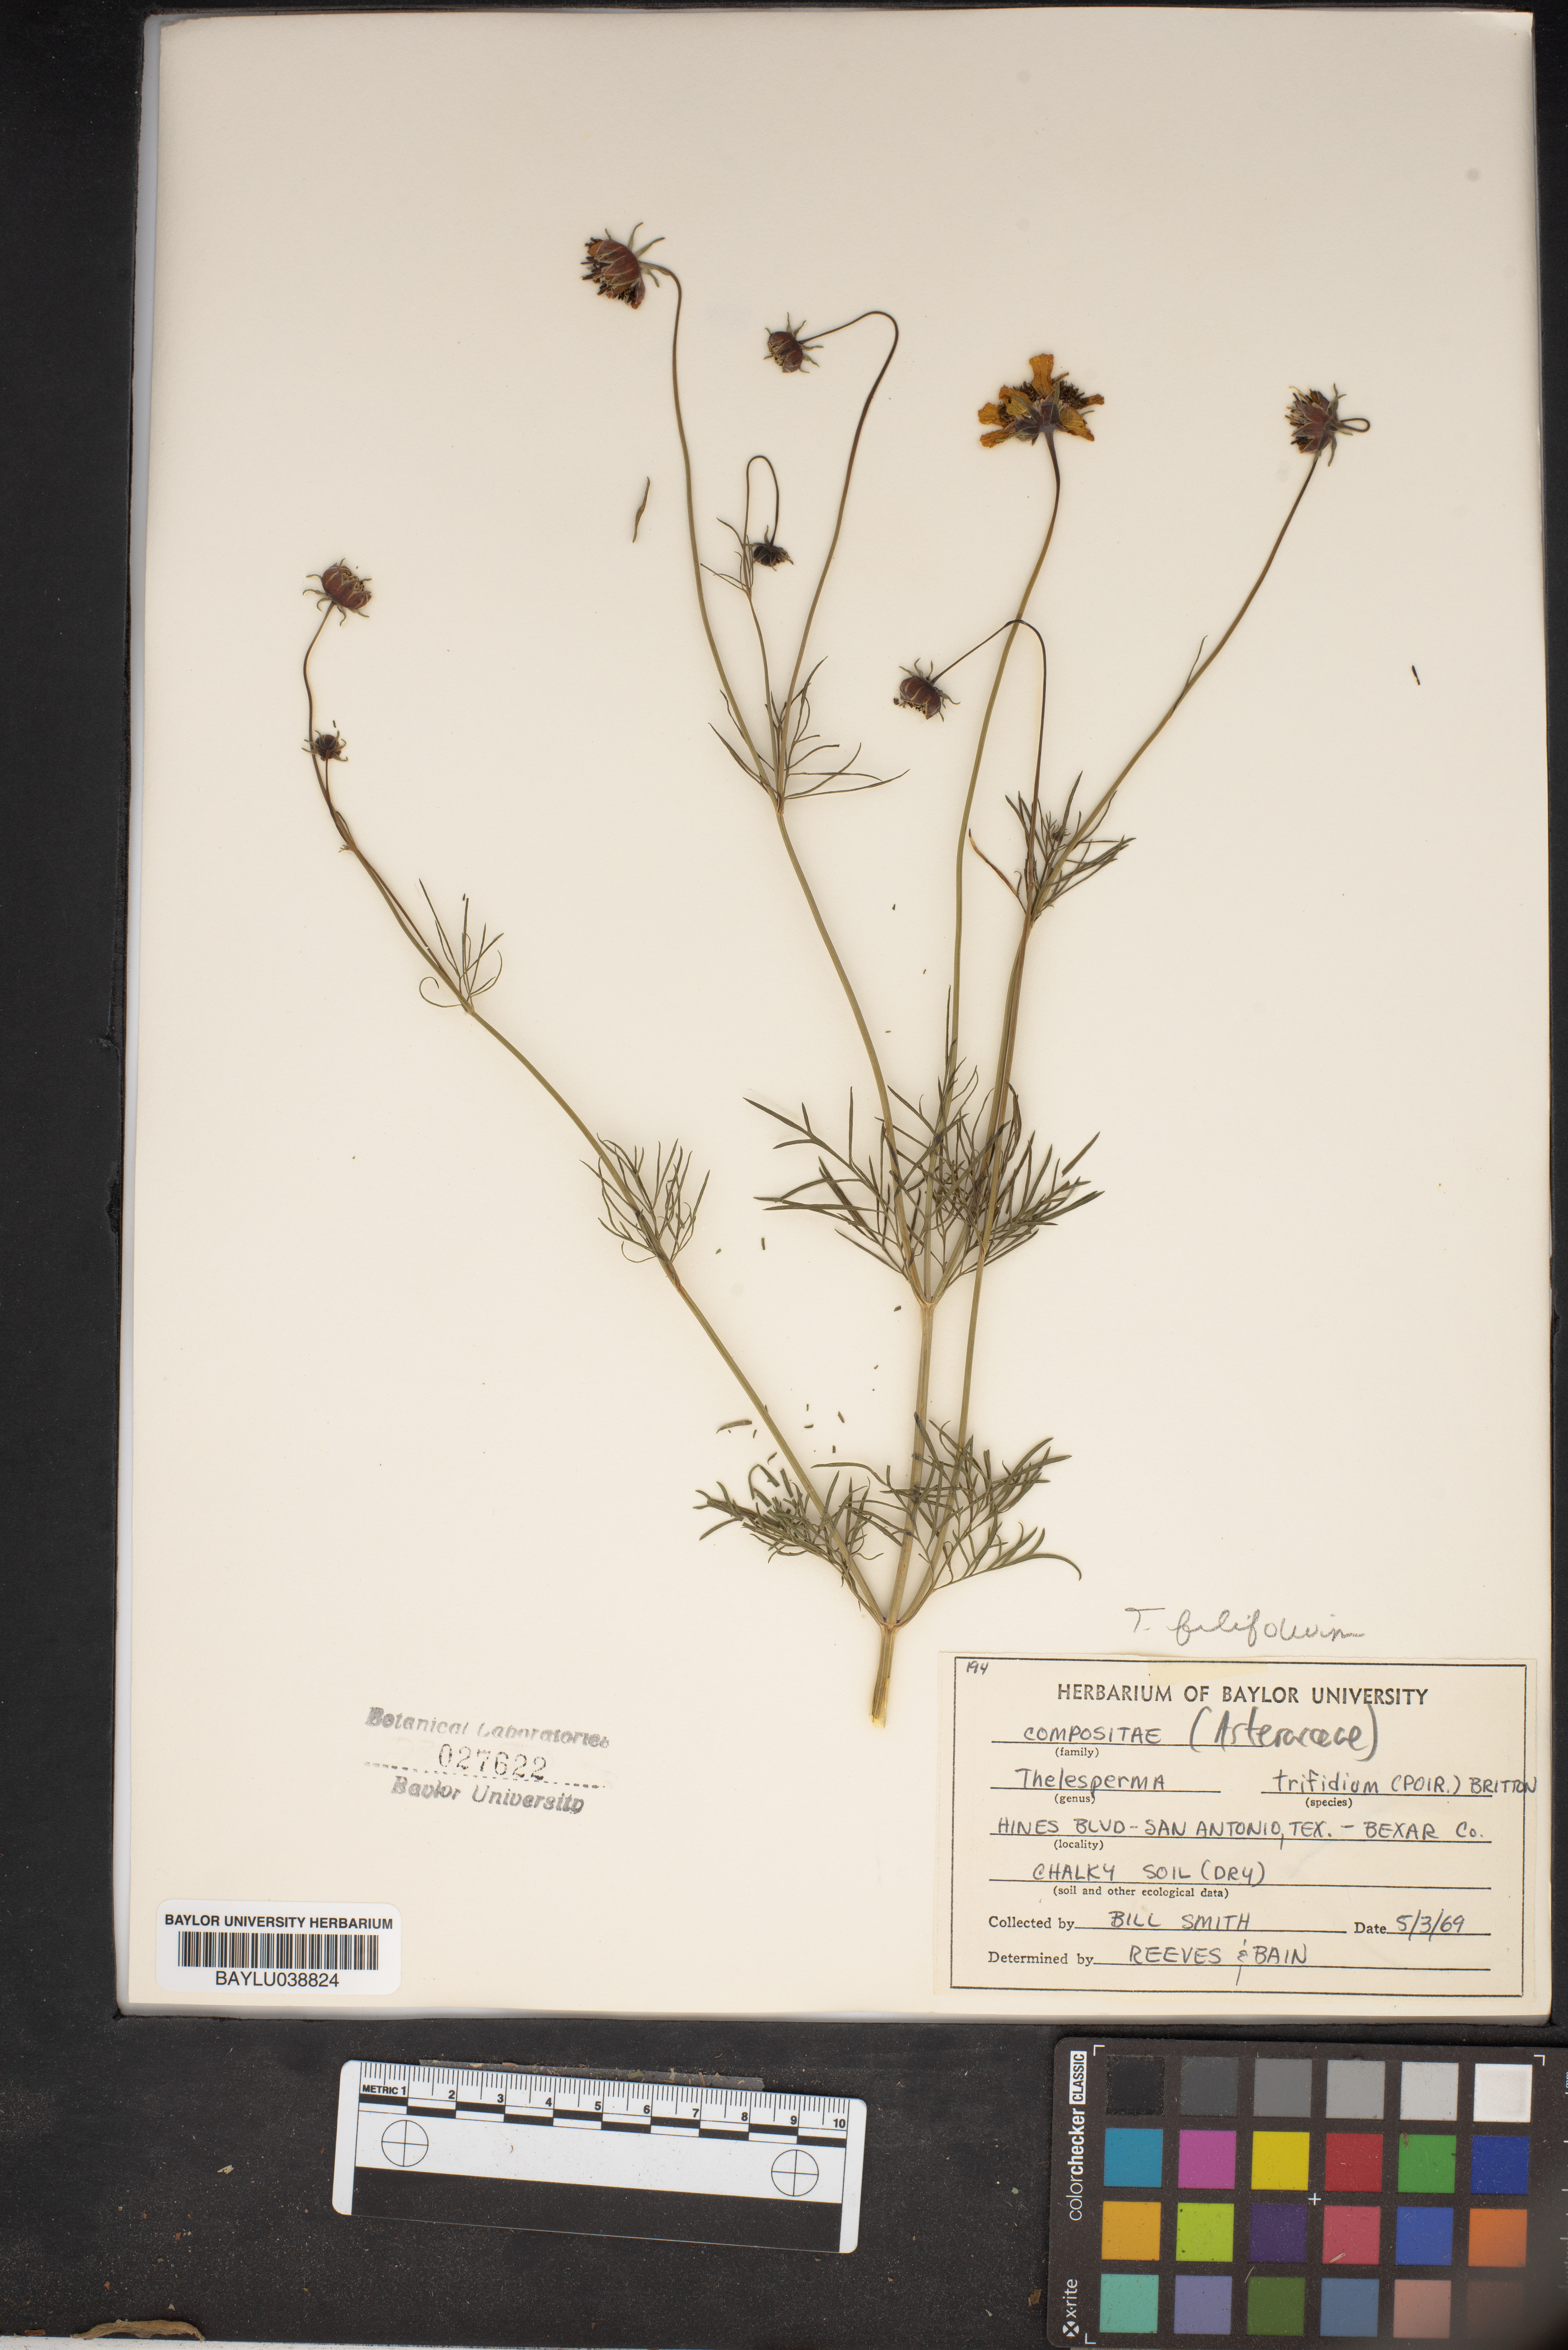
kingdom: Plantae
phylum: Tracheophyta
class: Magnoliopsida
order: Asterales
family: Asteraceae
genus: Thelesperma
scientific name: Thelesperma filifolium
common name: Stiff greenthread
